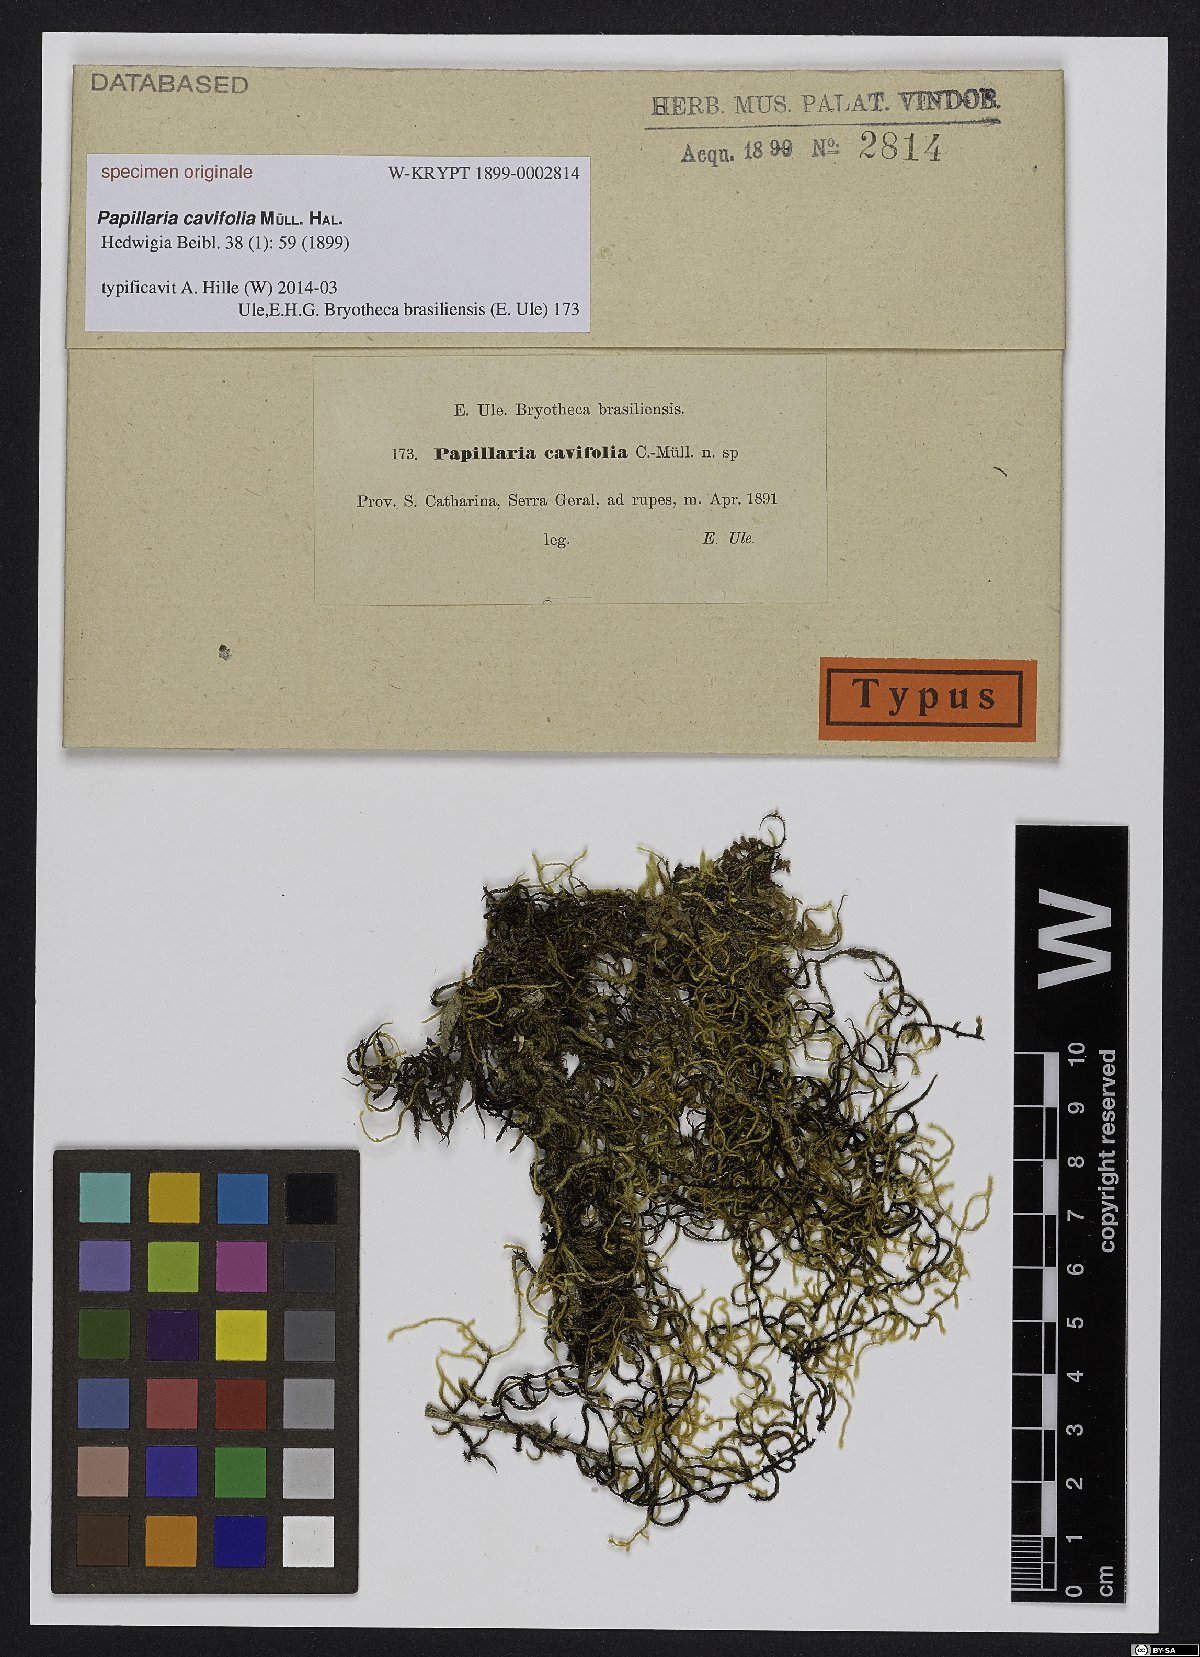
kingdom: Plantae
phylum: Bryophyta
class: Bryopsida
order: Hypnales
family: Meteoriaceae
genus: Papillaria
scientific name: Papillaria cavifolia
